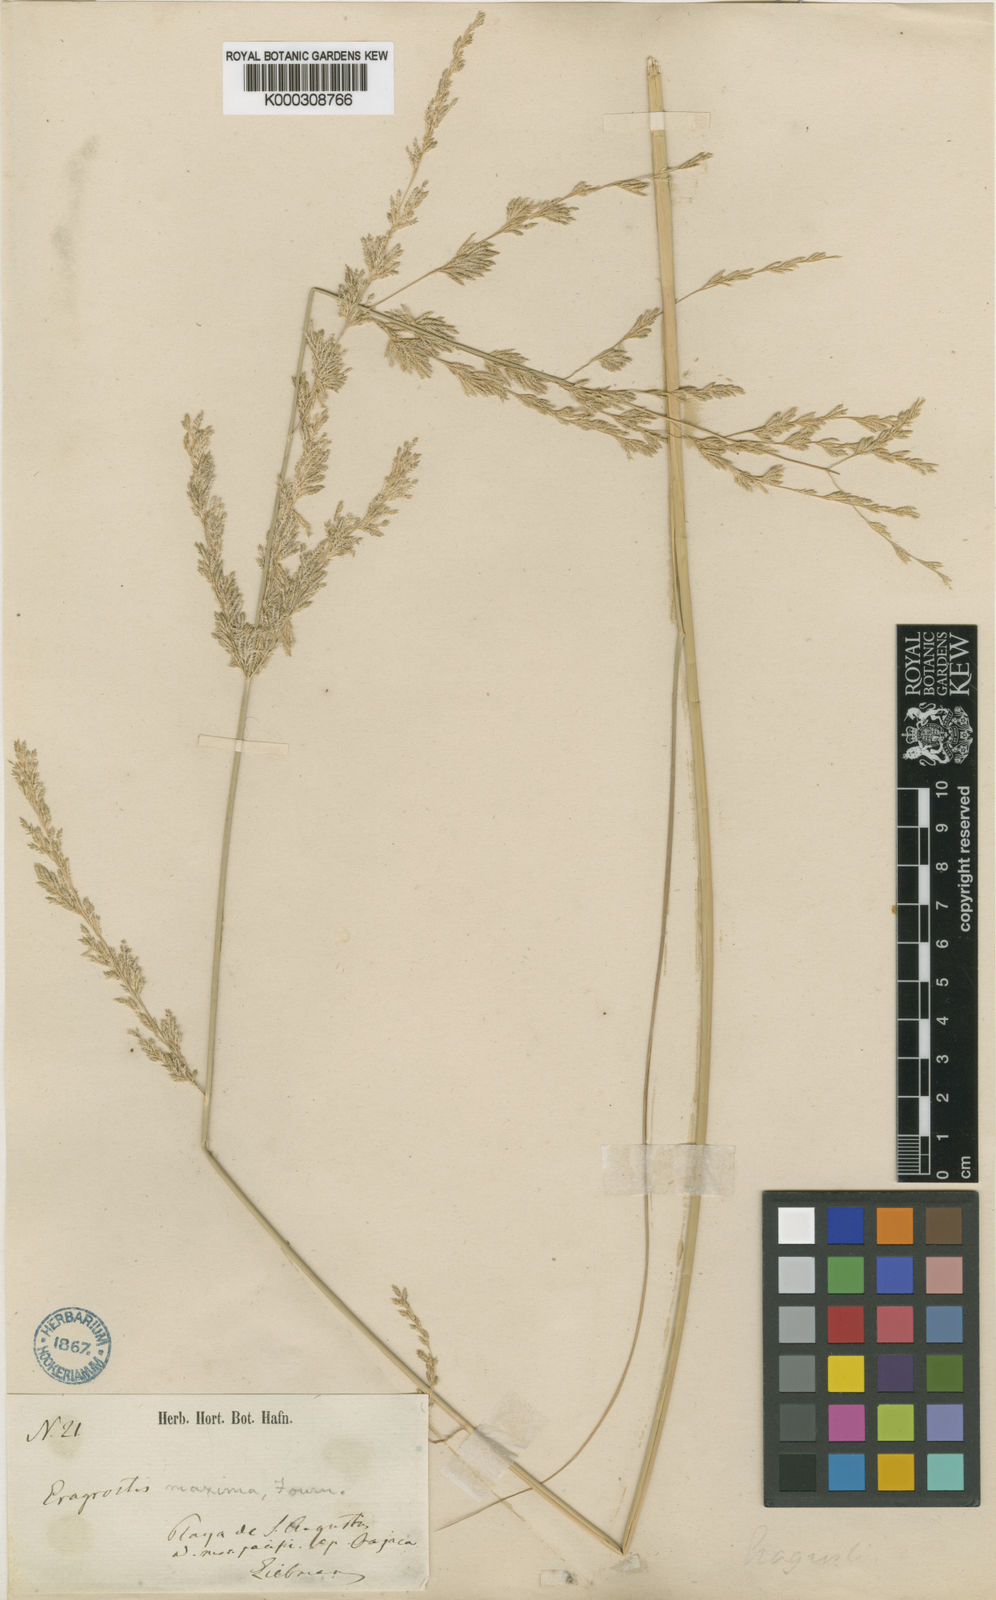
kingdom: Plantae
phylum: Tracheophyta
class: Liliopsida
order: Poales
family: Poaceae
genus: Eragrostis
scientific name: Eragrostis prolifera
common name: Dominican lovegrass
